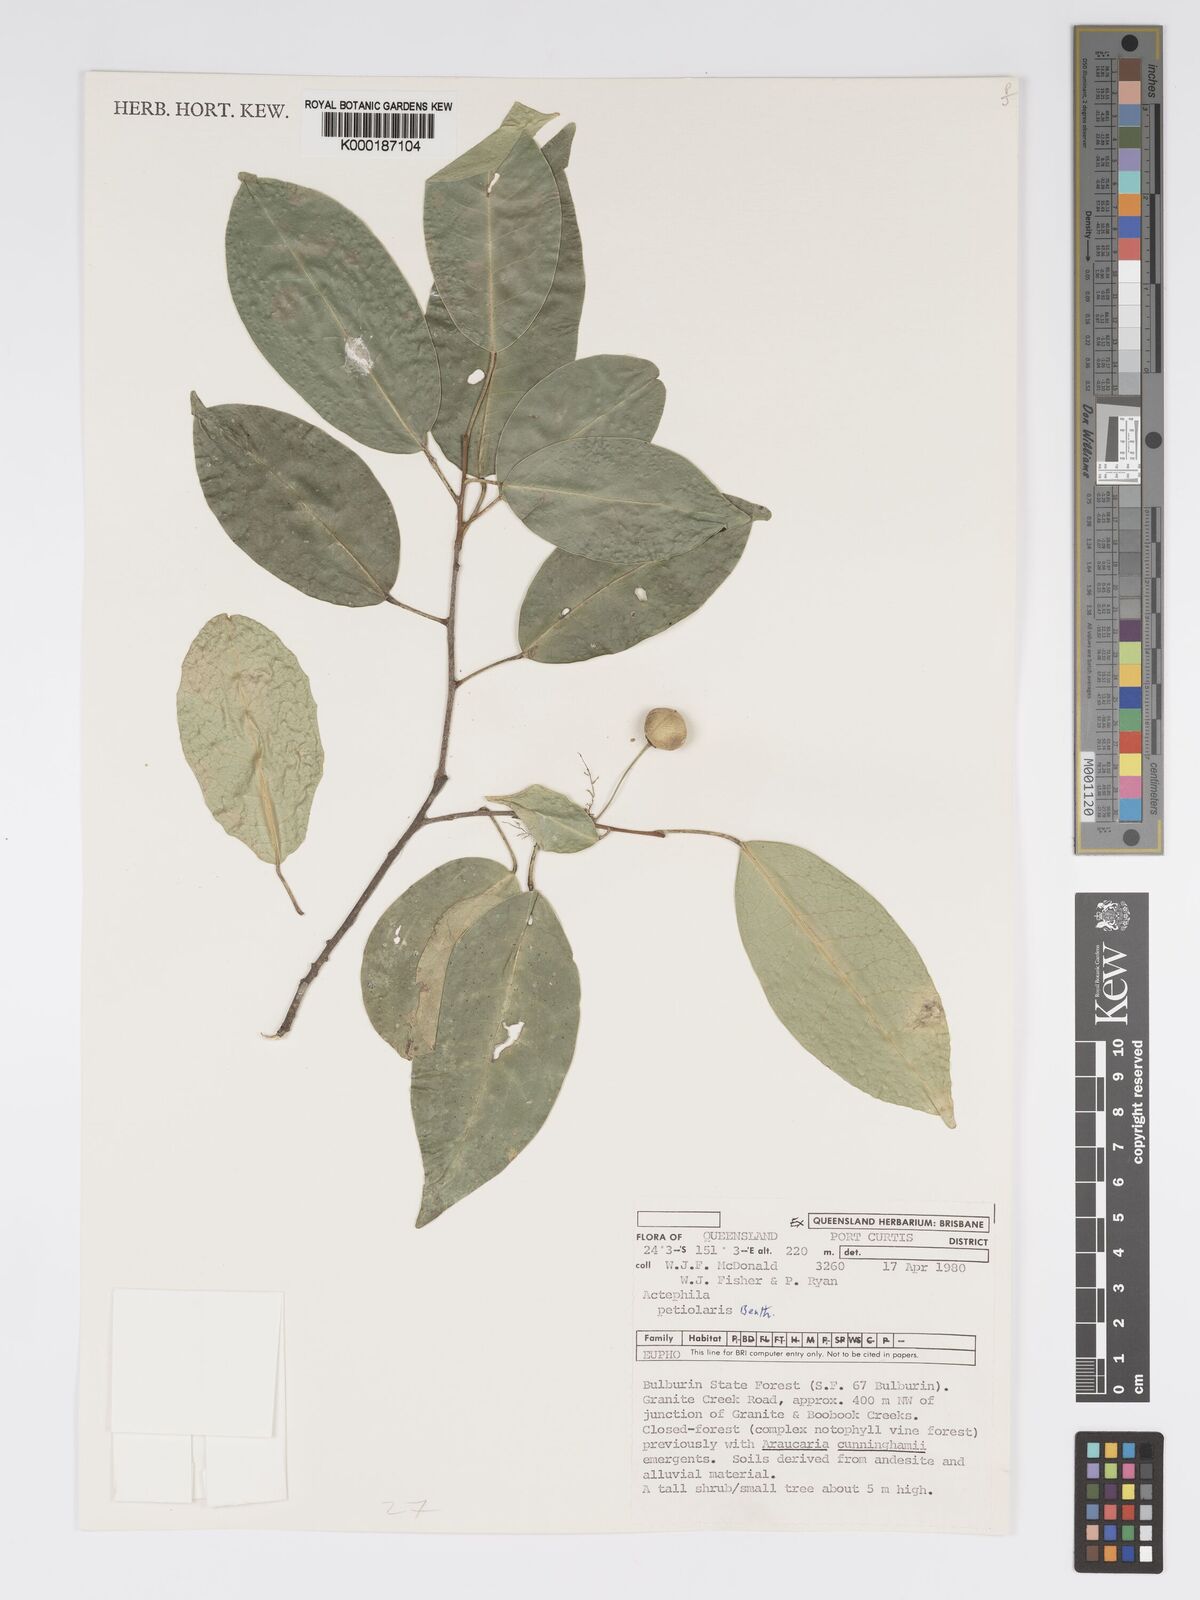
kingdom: Plantae
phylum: Tracheophyta
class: Magnoliopsida
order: Malpighiales
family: Phyllanthaceae
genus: Actephila
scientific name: Actephila lindleyi
